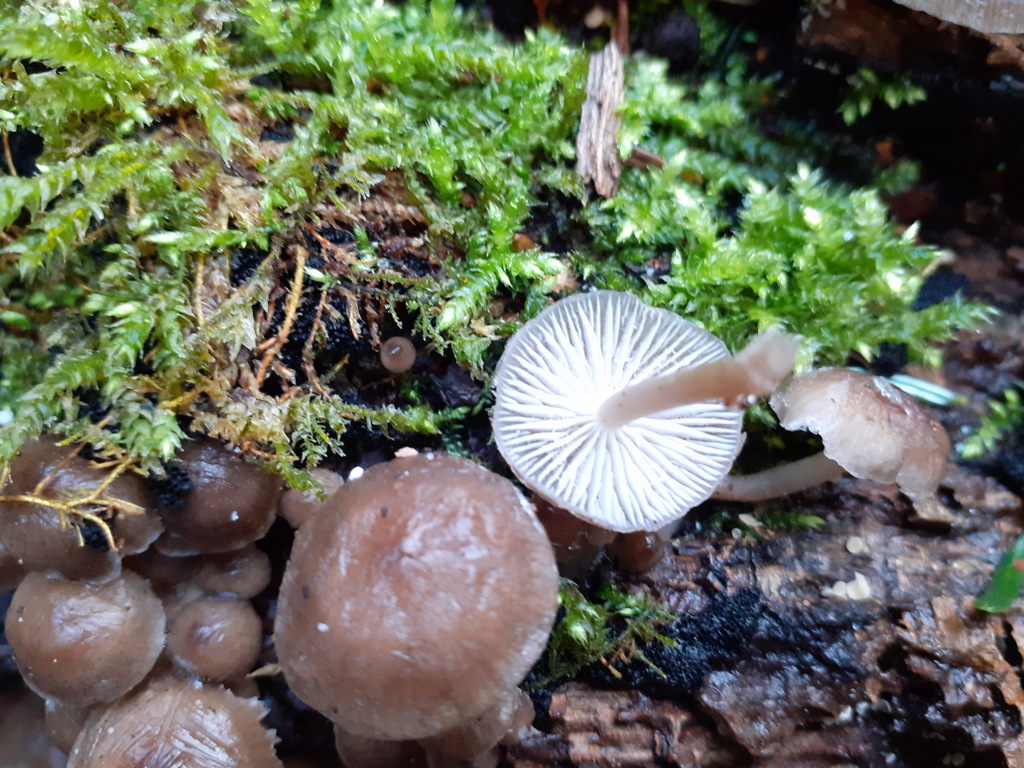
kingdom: Fungi
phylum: Basidiomycota
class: Agaricomycetes
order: Agaricales
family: Mycenaceae
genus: Mycena
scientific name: Mycena tintinnabulum
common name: vinter-huesvamp
